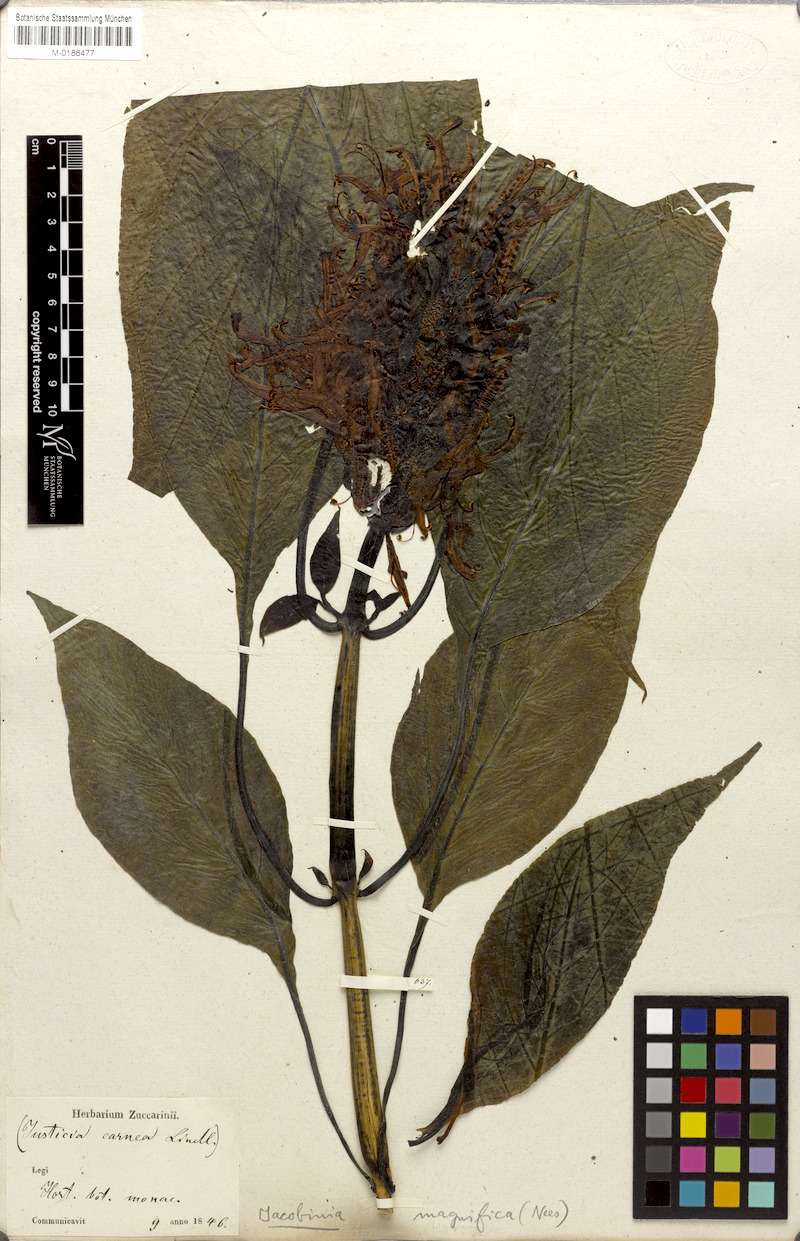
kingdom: Plantae
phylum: Tracheophyta
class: Magnoliopsida
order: Lamiales
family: Acanthaceae
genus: Justicia
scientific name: Justicia carnea
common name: Brazilian-plume
